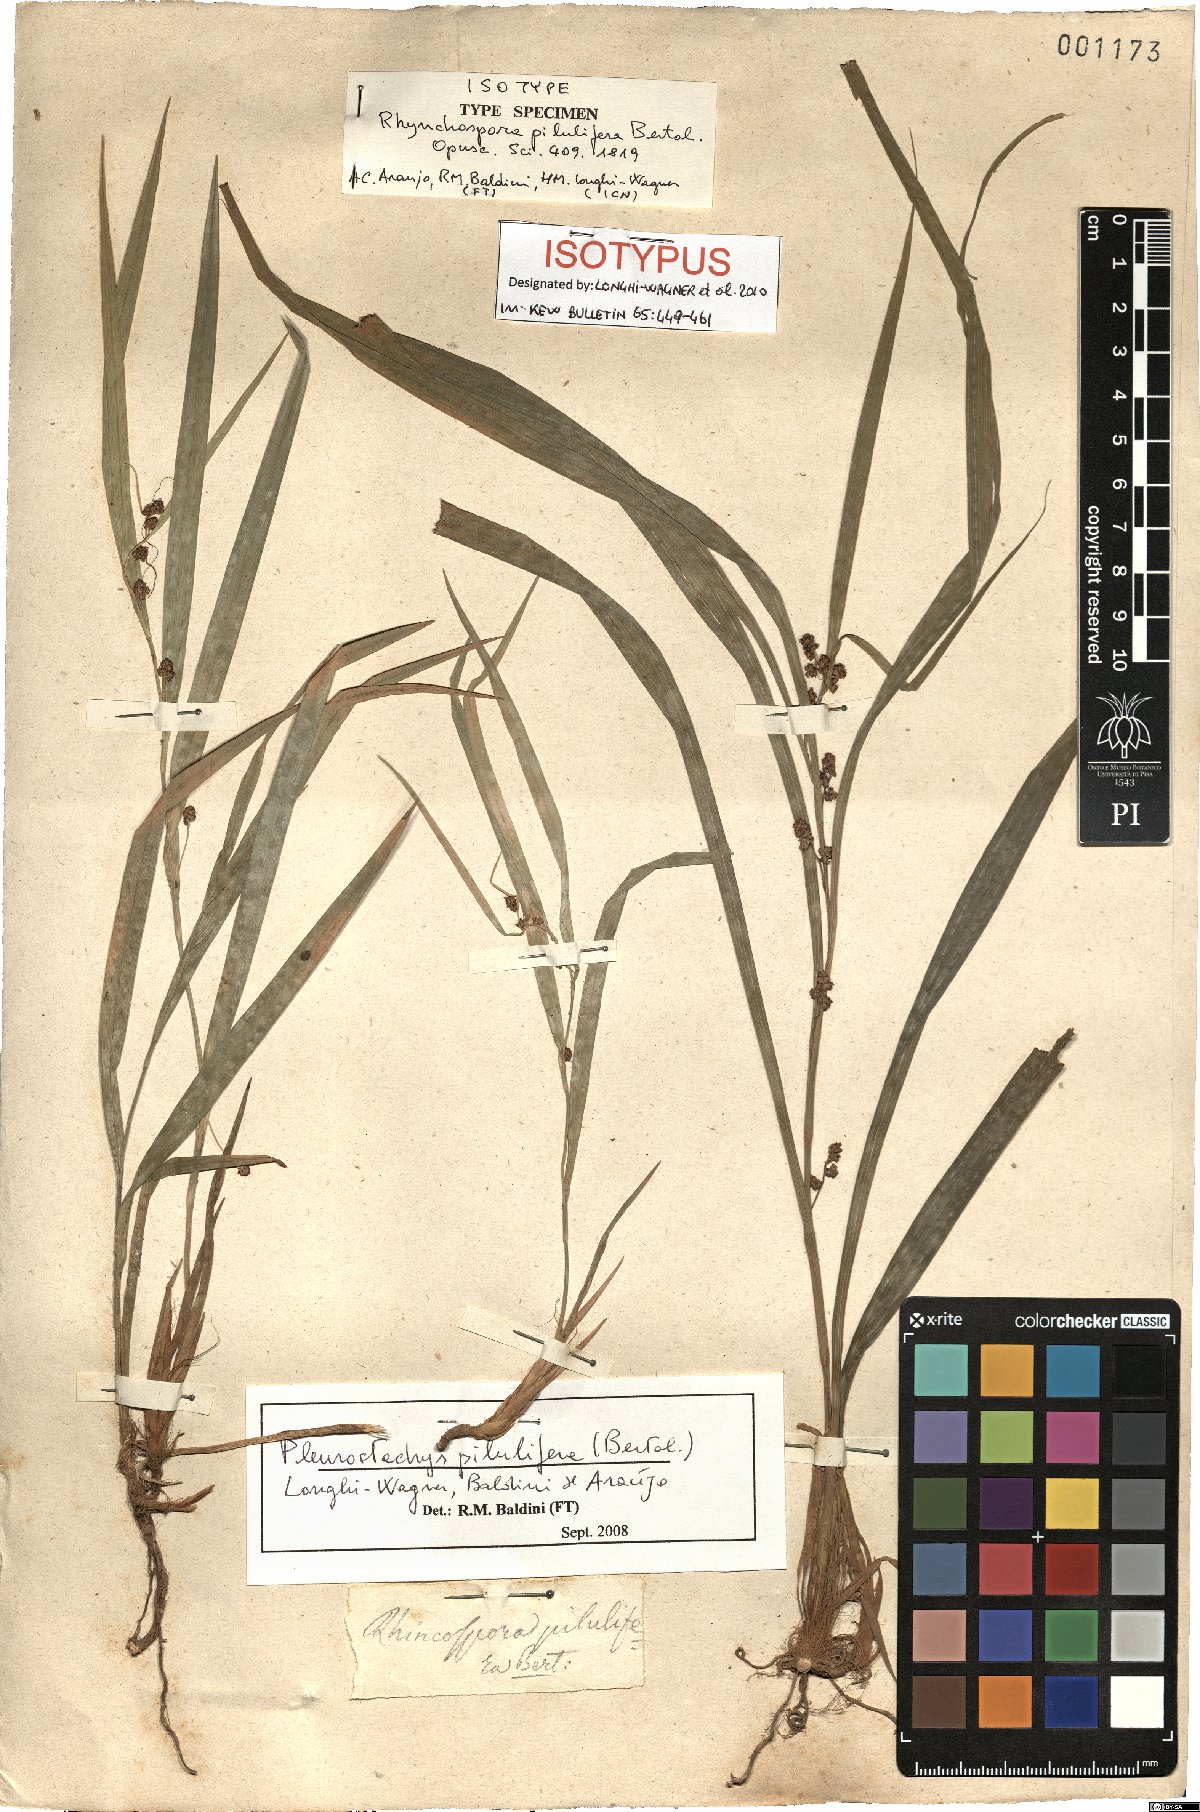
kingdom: Plantae
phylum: Tracheophyta
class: Liliopsida
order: Poales
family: Cyperaceae
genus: Rhynchospora
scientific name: Rhynchospora pilulifera
